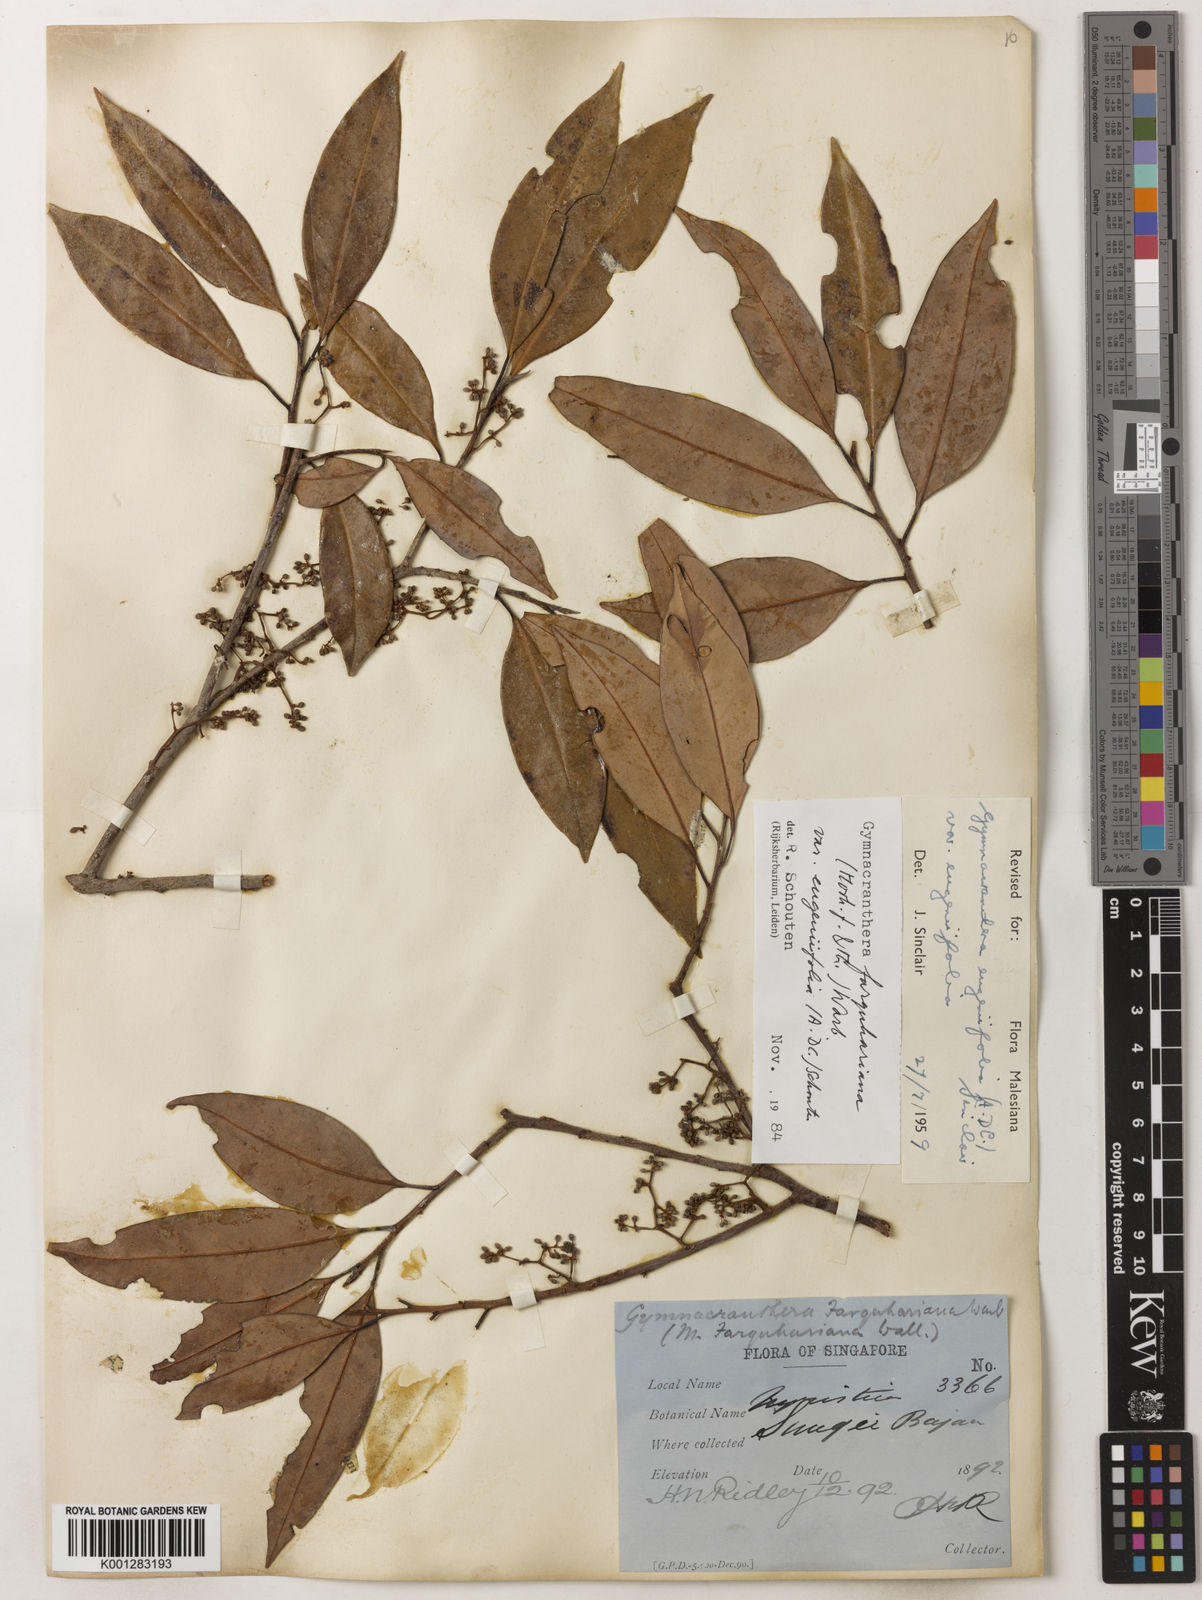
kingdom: Plantae
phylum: Tracheophyta
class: Magnoliopsida
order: Magnoliales
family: Myristicaceae
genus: Gymnacranthera
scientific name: Gymnacranthera farquhariana
